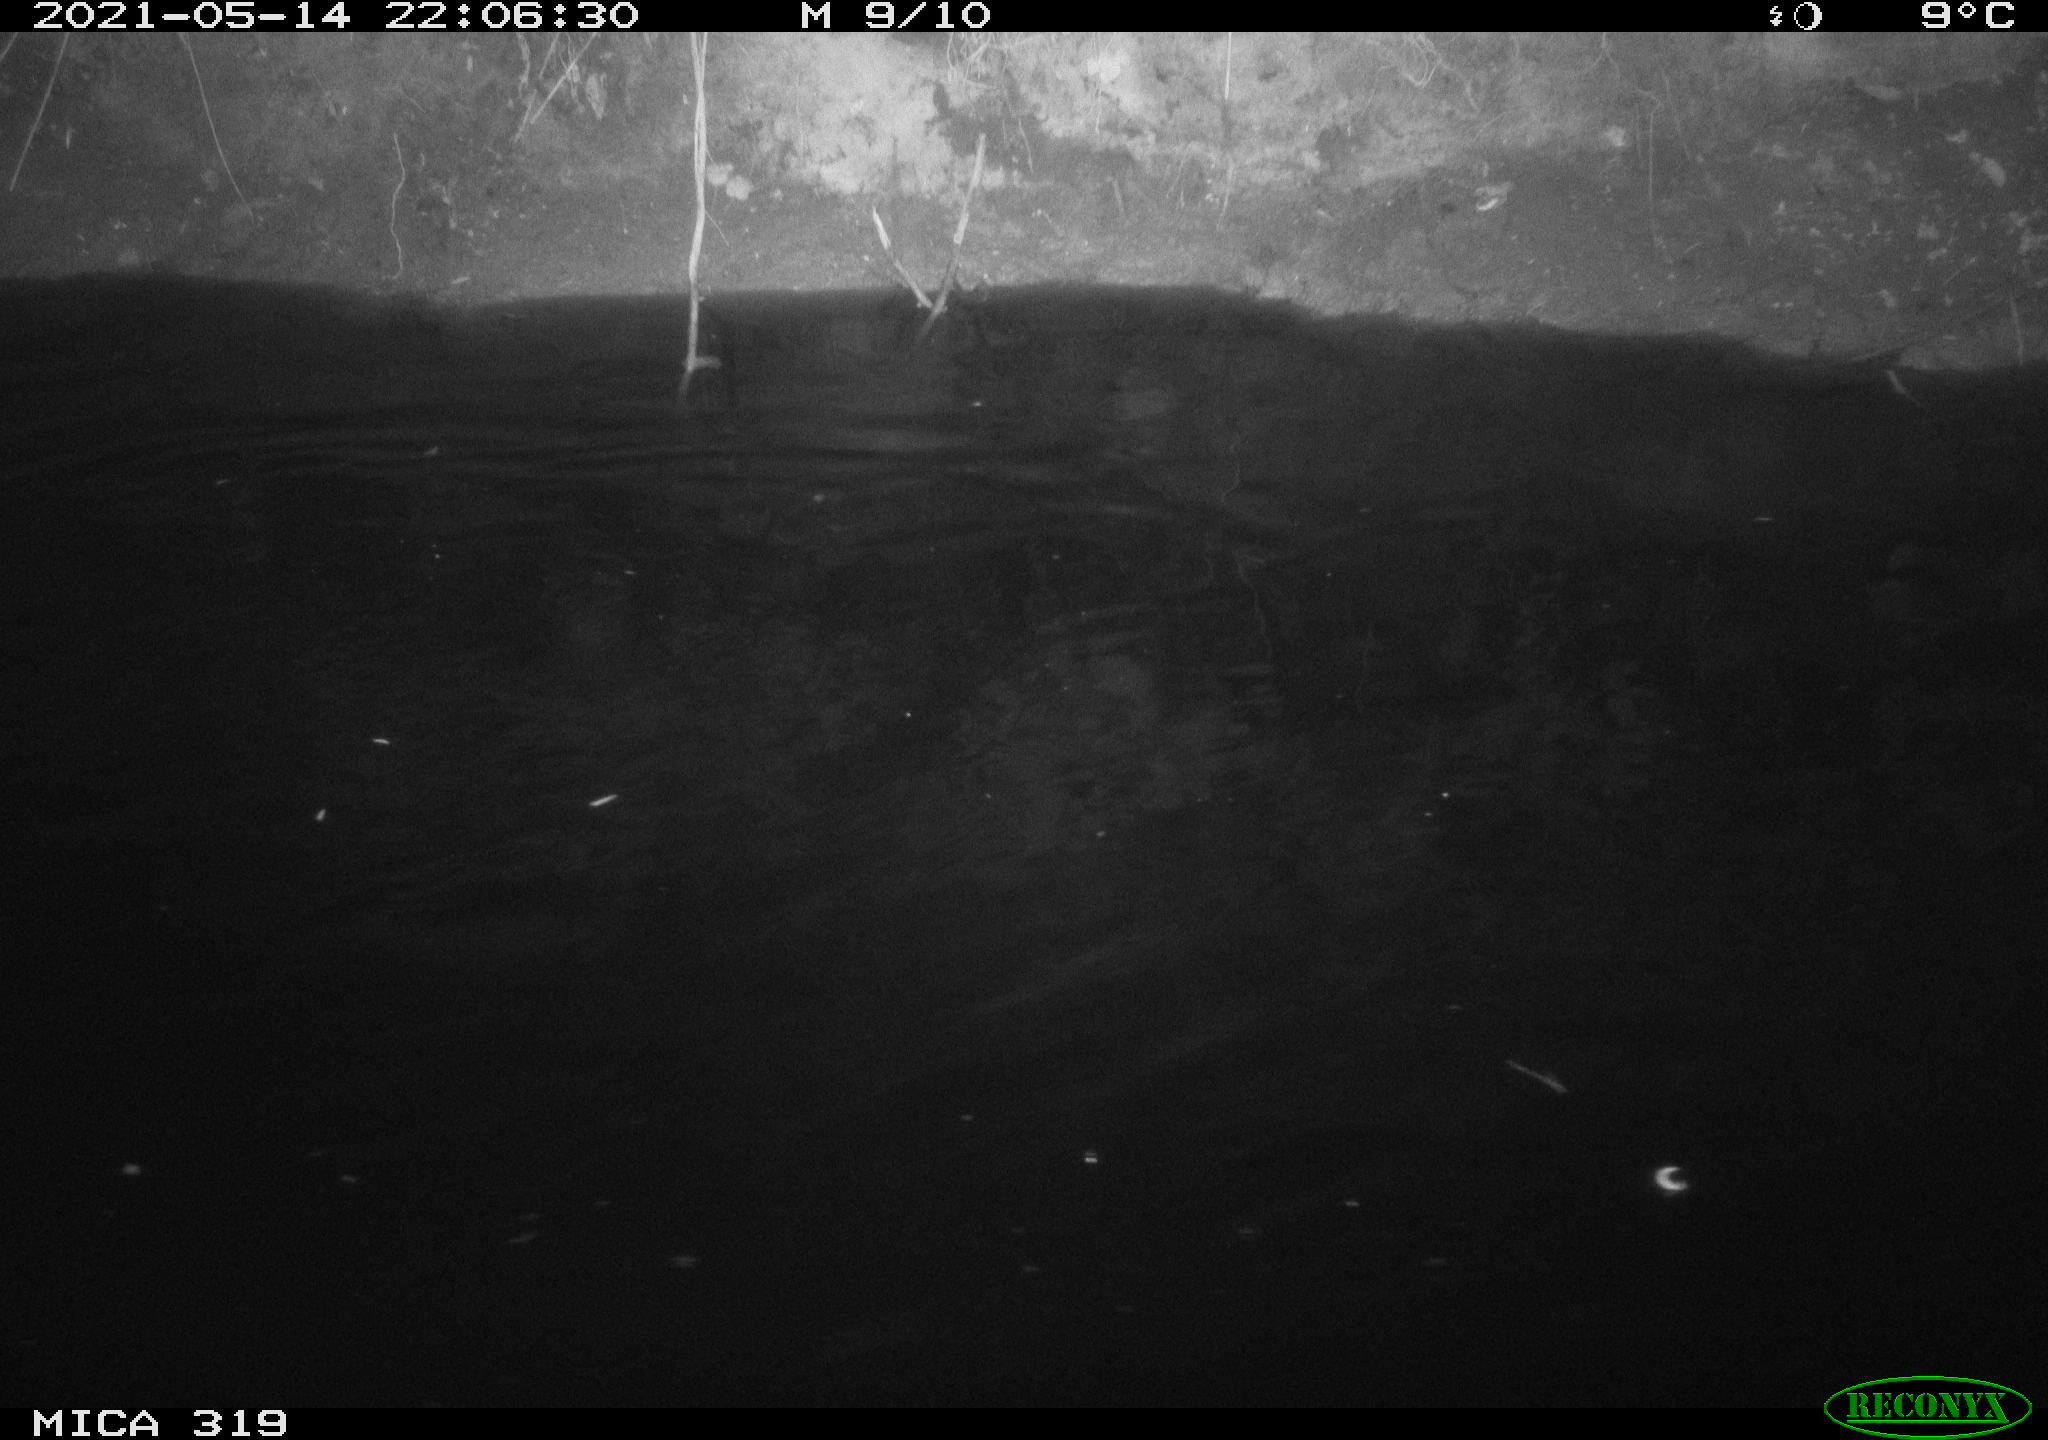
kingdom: Animalia
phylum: Chordata
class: Aves
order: Anseriformes
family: Anatidae
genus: Anas
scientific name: Anas platyrhynchos
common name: Mallard
